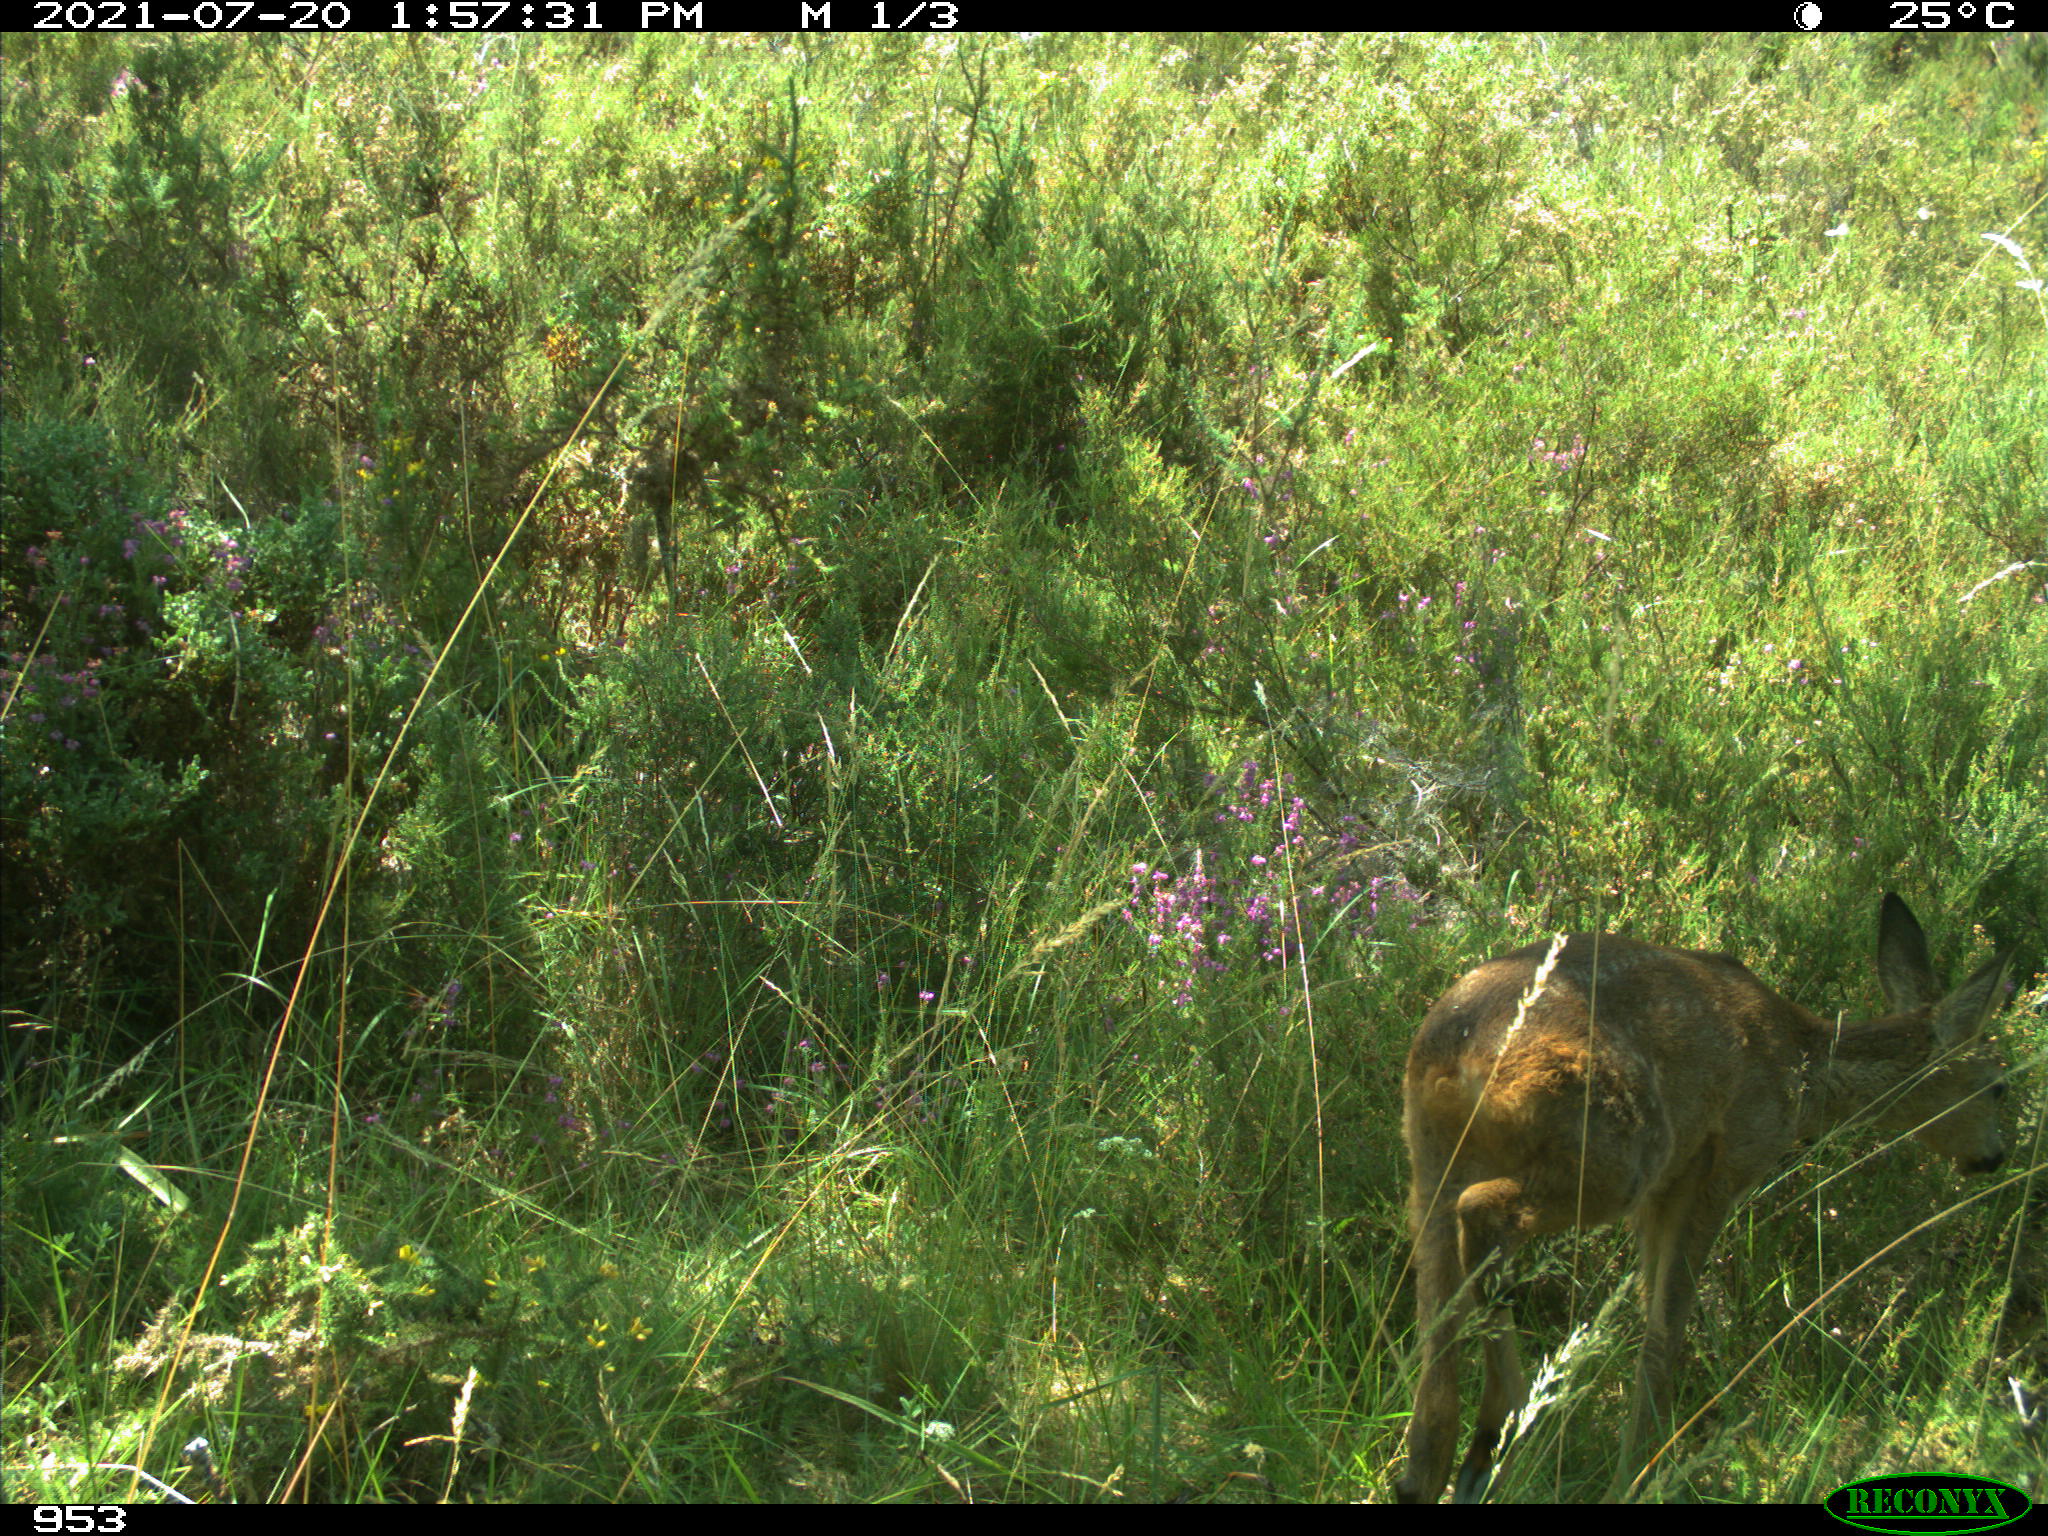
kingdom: Animalia
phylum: Chordata
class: Mammalia
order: Artiodactyla
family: Cervidae
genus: Capreolus
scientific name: Capreolus capreolus
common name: Western roe deer
